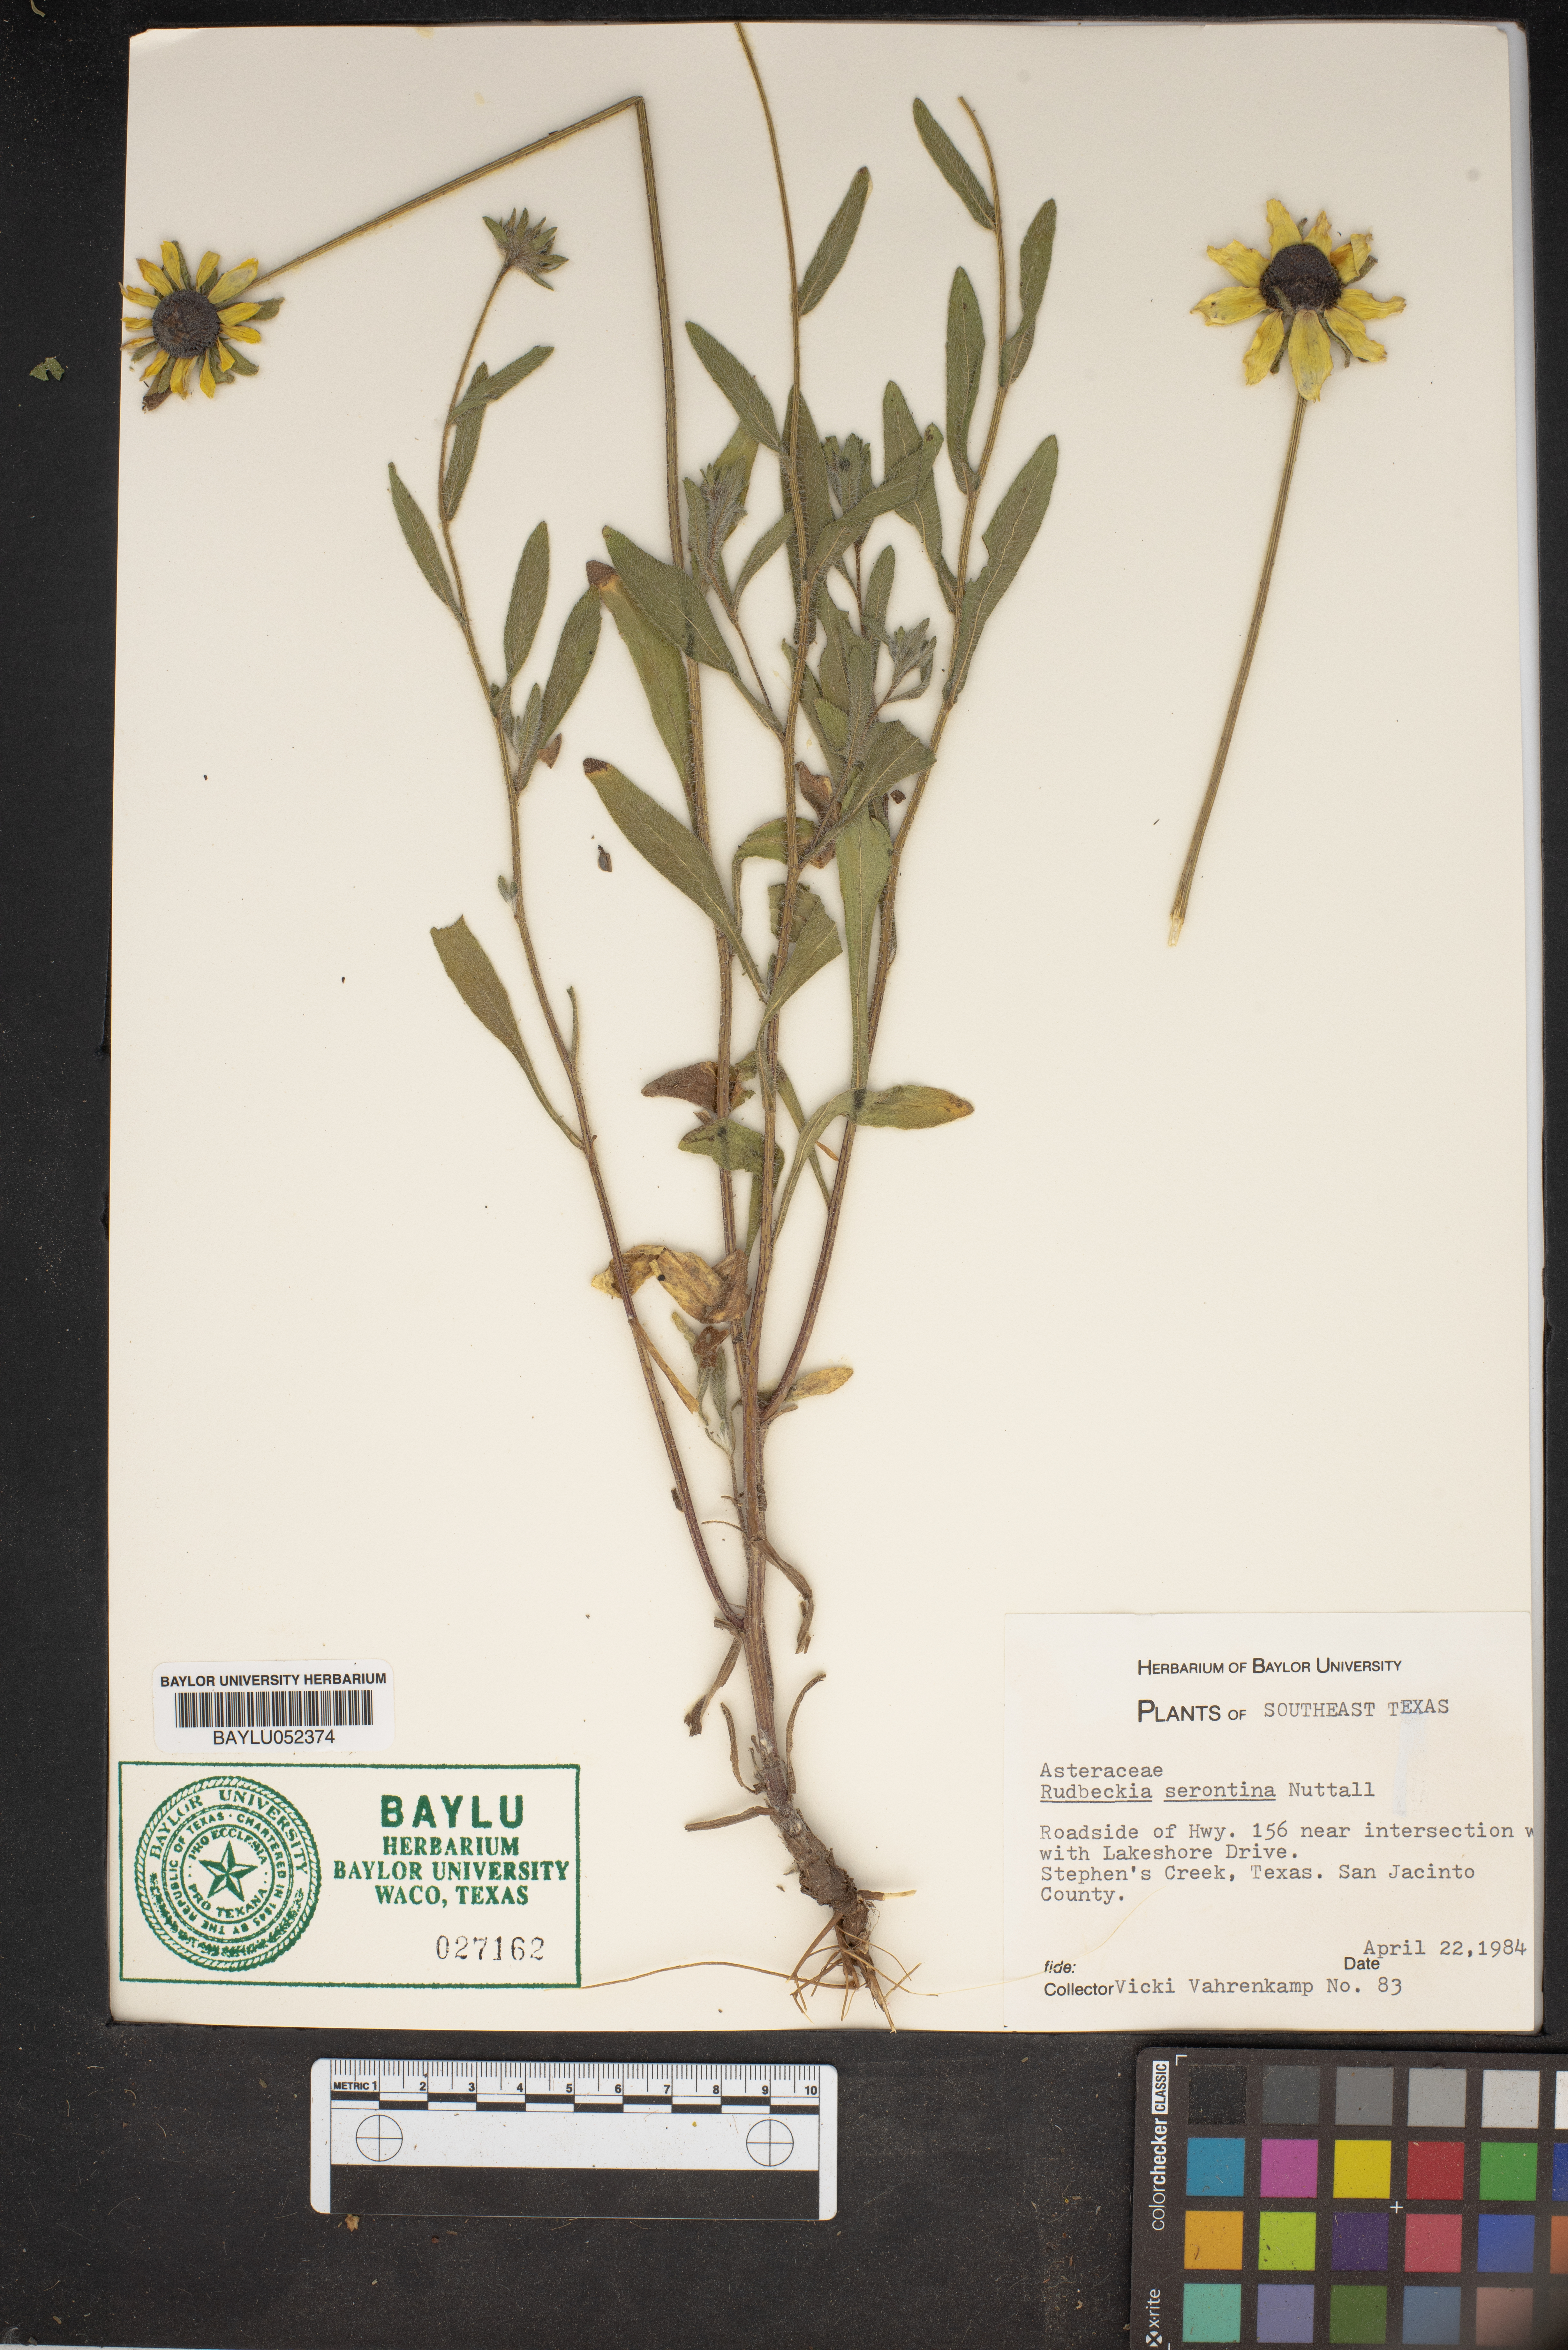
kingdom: Plantae
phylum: Tracheophyta
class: Magnoliopsida
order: Asterales
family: Asteraceae
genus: Echinacea
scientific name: Echinacea purpurea
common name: Broad-leaved purple coneflower
